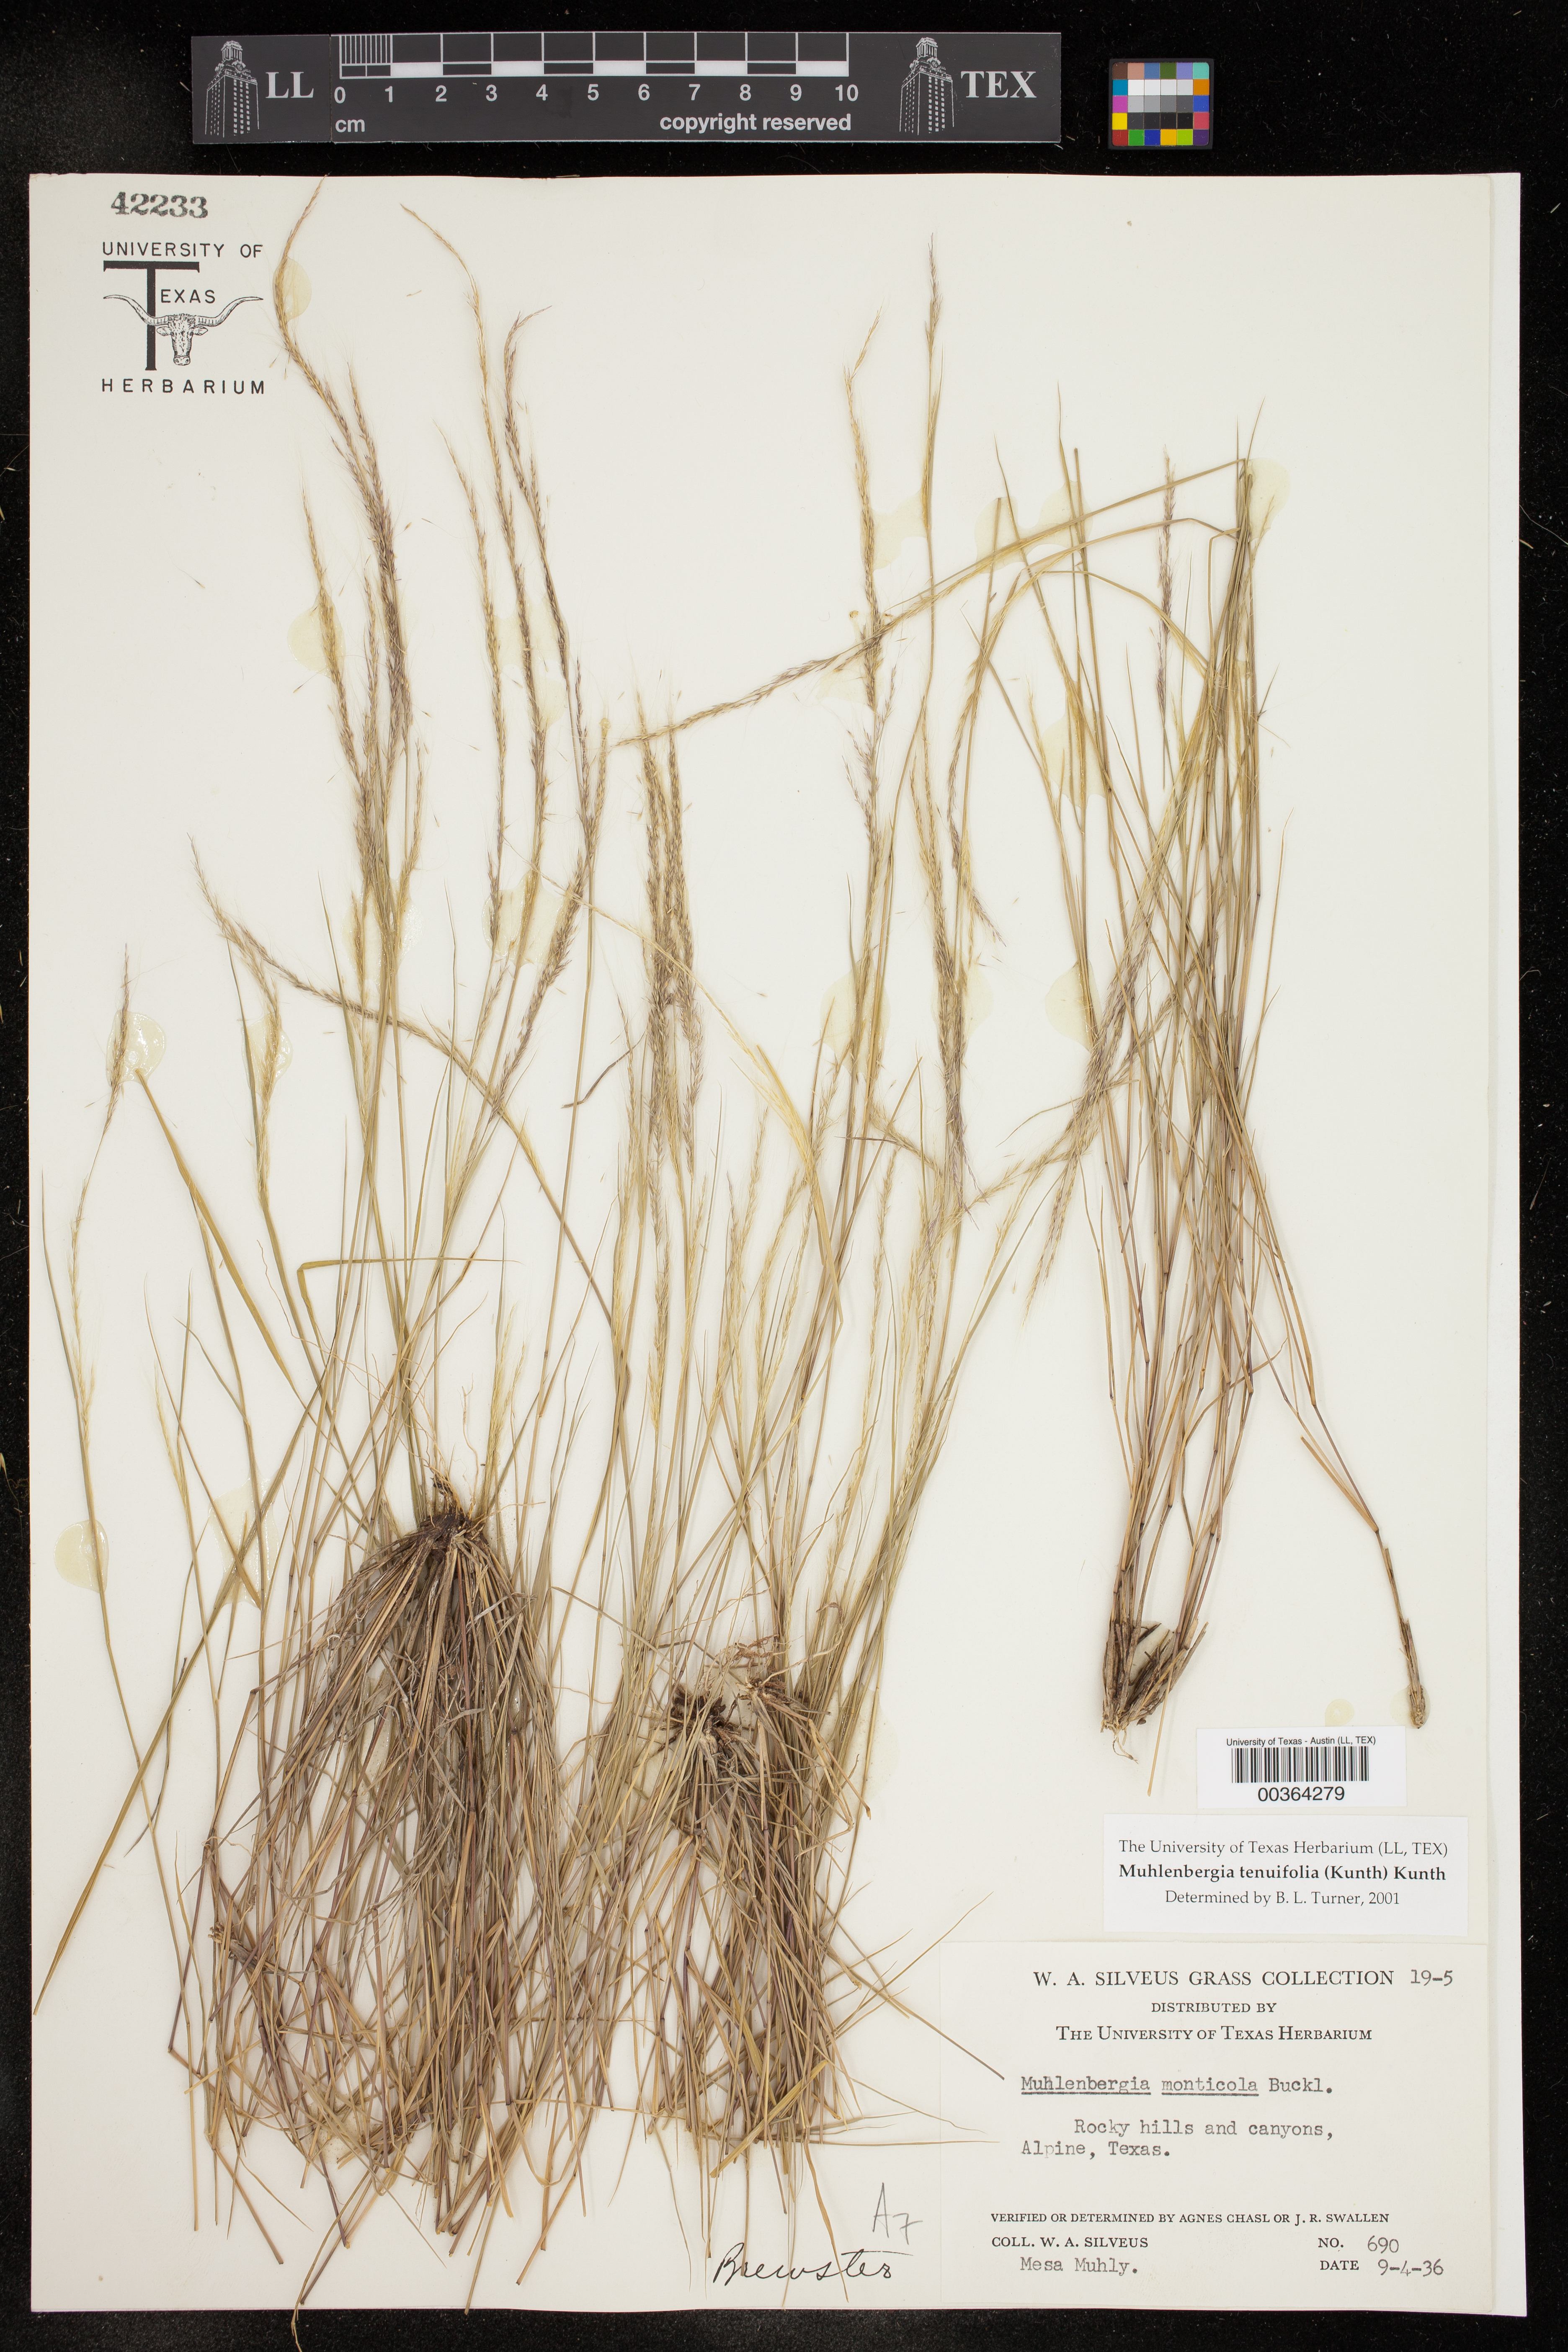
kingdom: Plantae
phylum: Tracheophyta
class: Liliopsida
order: Poales
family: Poaceae
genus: Muhlenbergia
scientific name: Muhlenbergia tenuifolia
